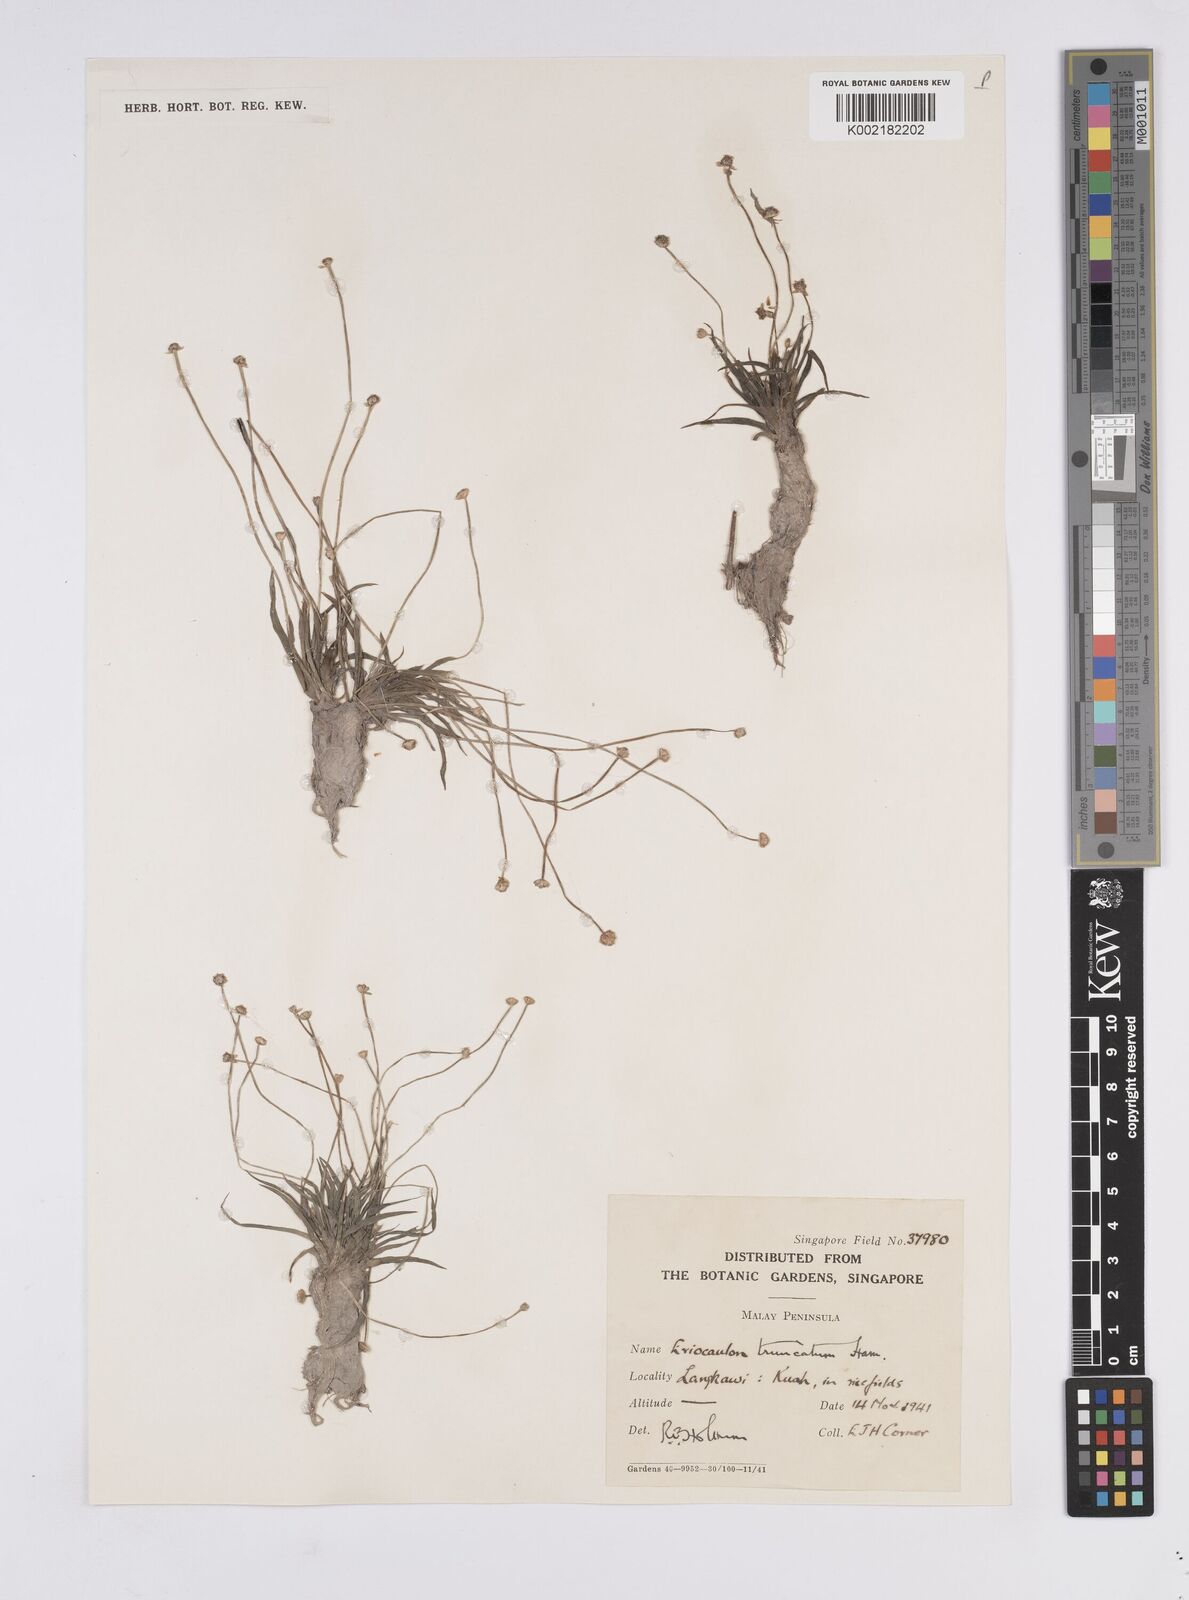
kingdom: Plantae
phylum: Tracheophyta
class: Liliopsida
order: Poales
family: Eriocaulaceae
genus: Eriocaulon
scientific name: Eriocaulon truncatum
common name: Short pipe-wort
